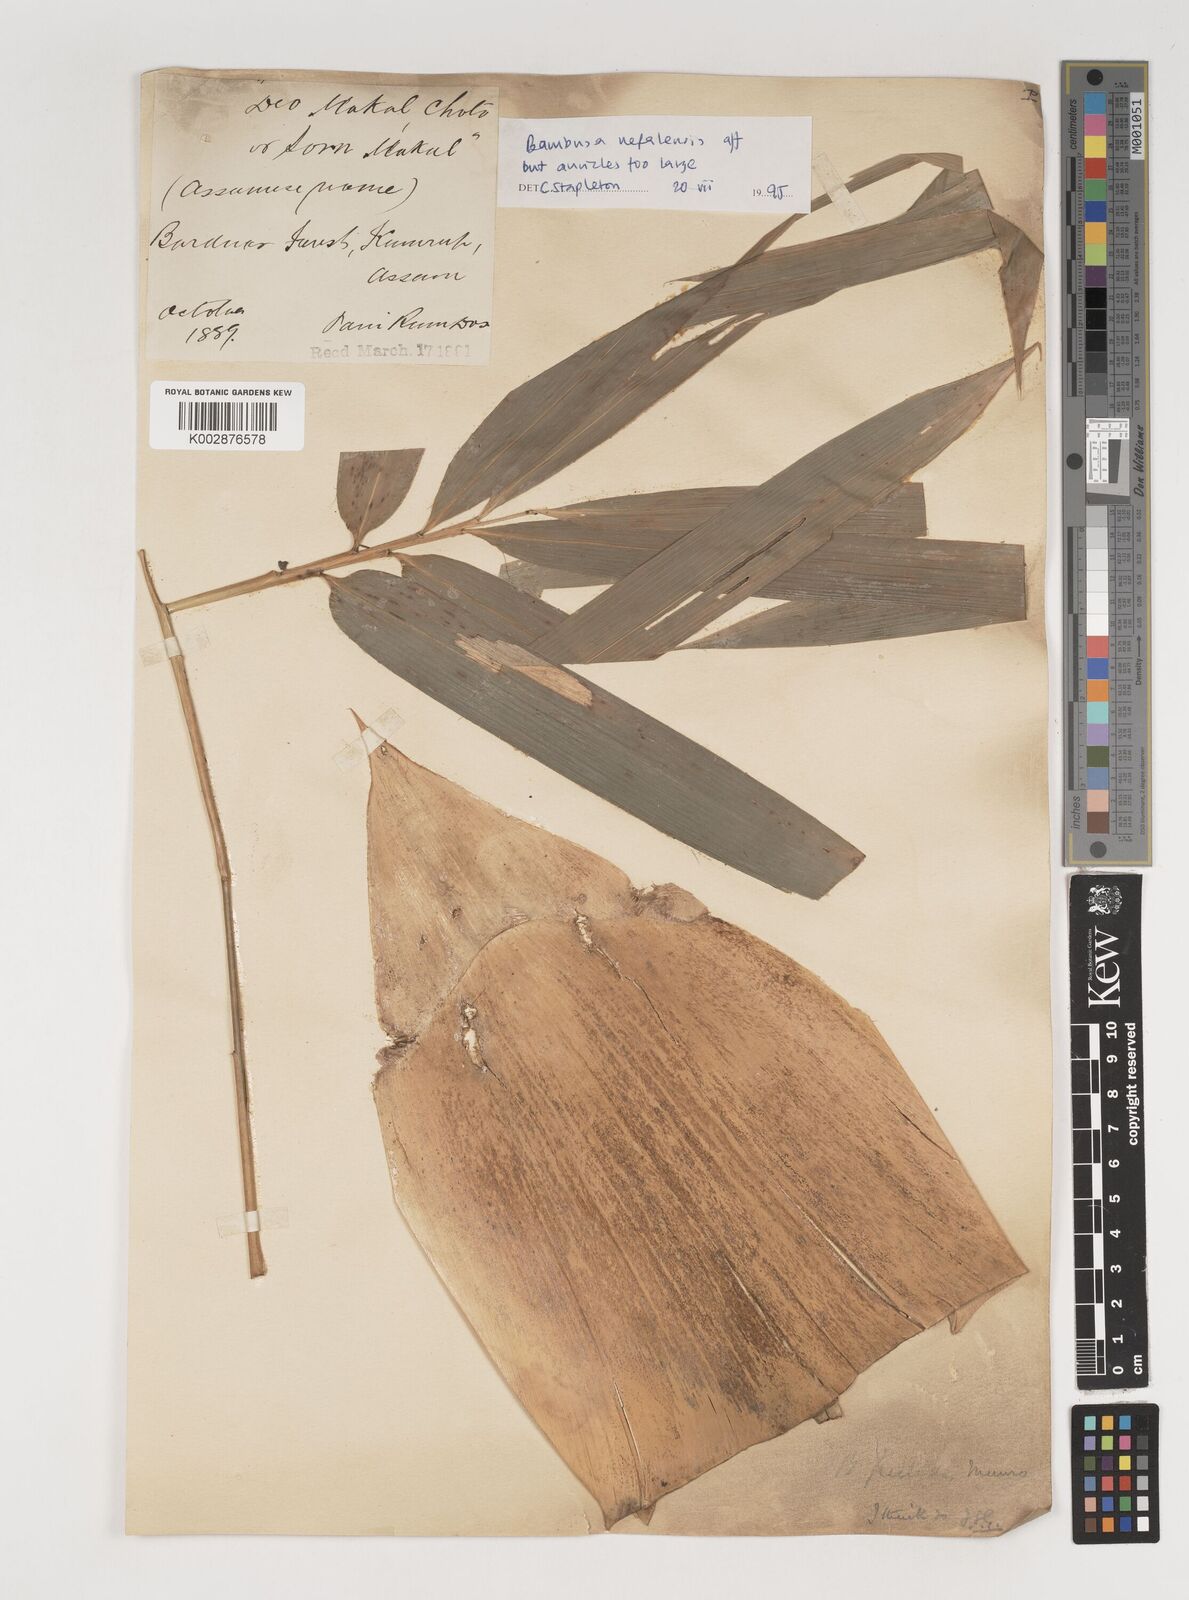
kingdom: Plantae
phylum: Tracheophyta
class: Liliopsida
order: Poales
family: Poaceae
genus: Bambusa
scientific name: Bambusa nepalensis
